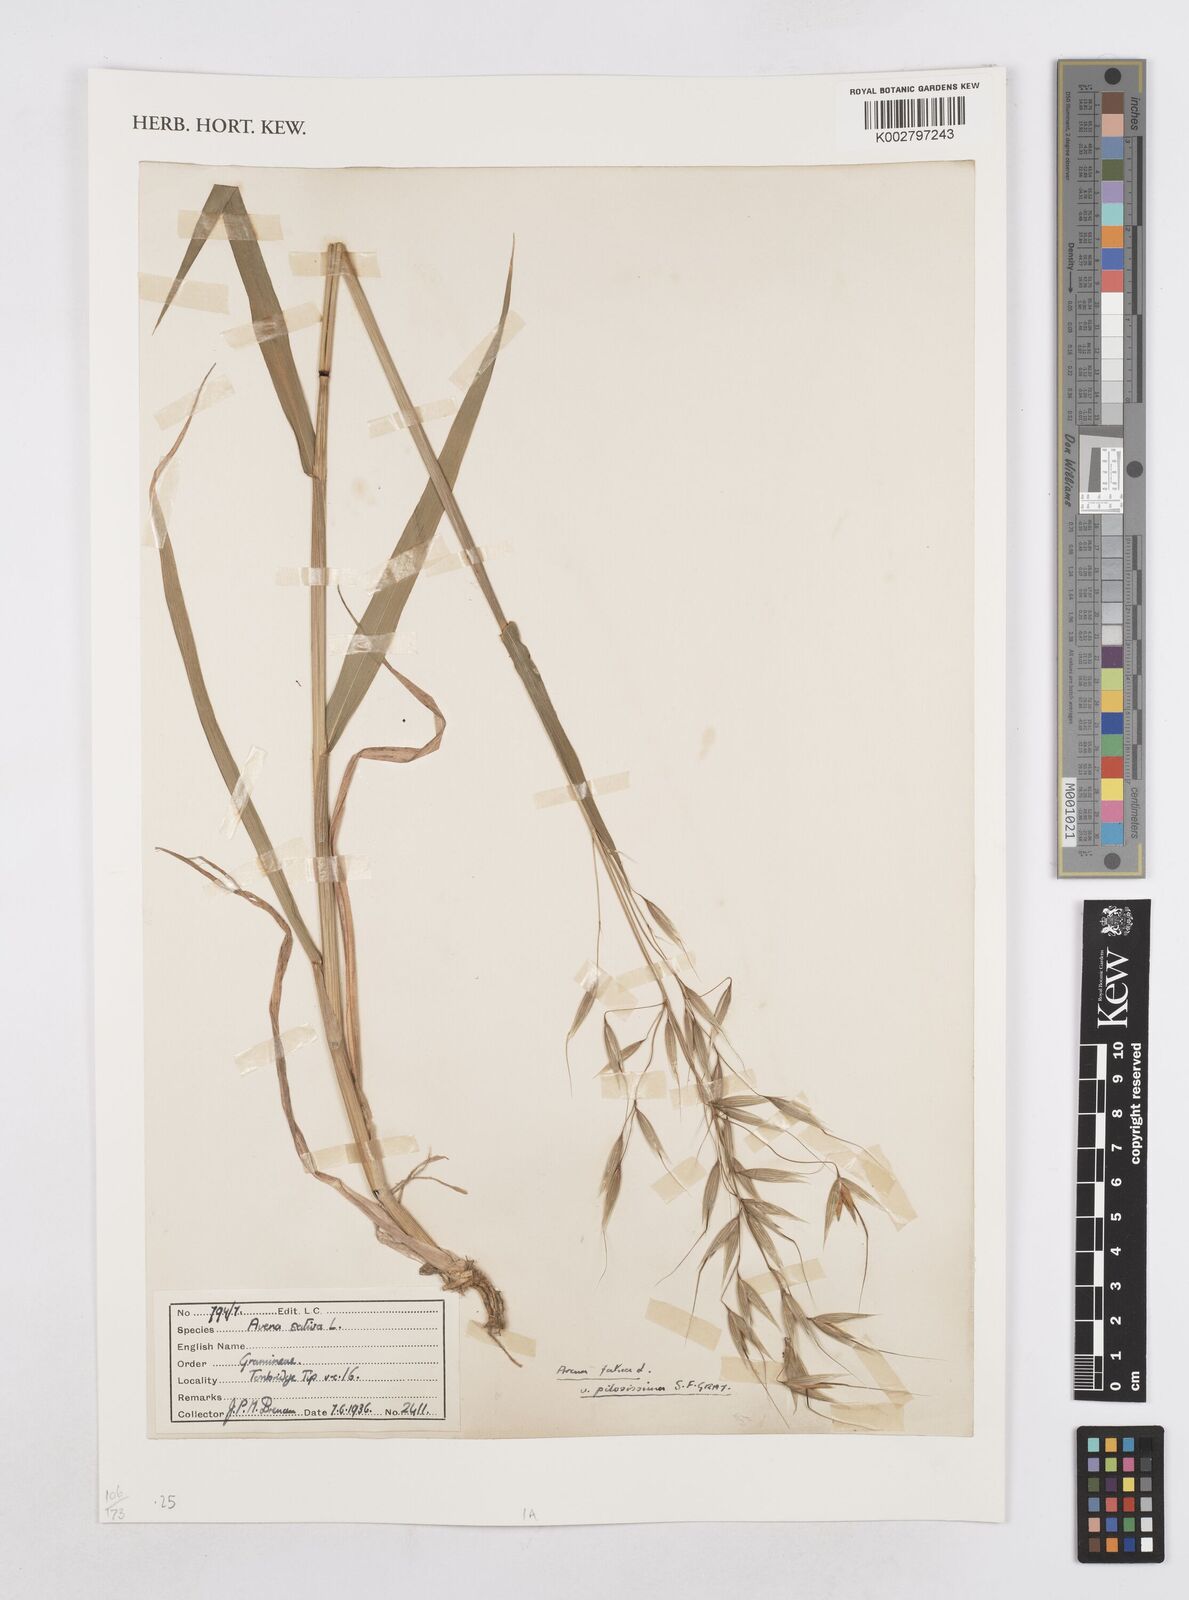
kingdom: Plantae
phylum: Tracheophyta
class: Liliopsida
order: Poales
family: Poaceae
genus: Avena
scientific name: Avena fatua
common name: Wild oat
